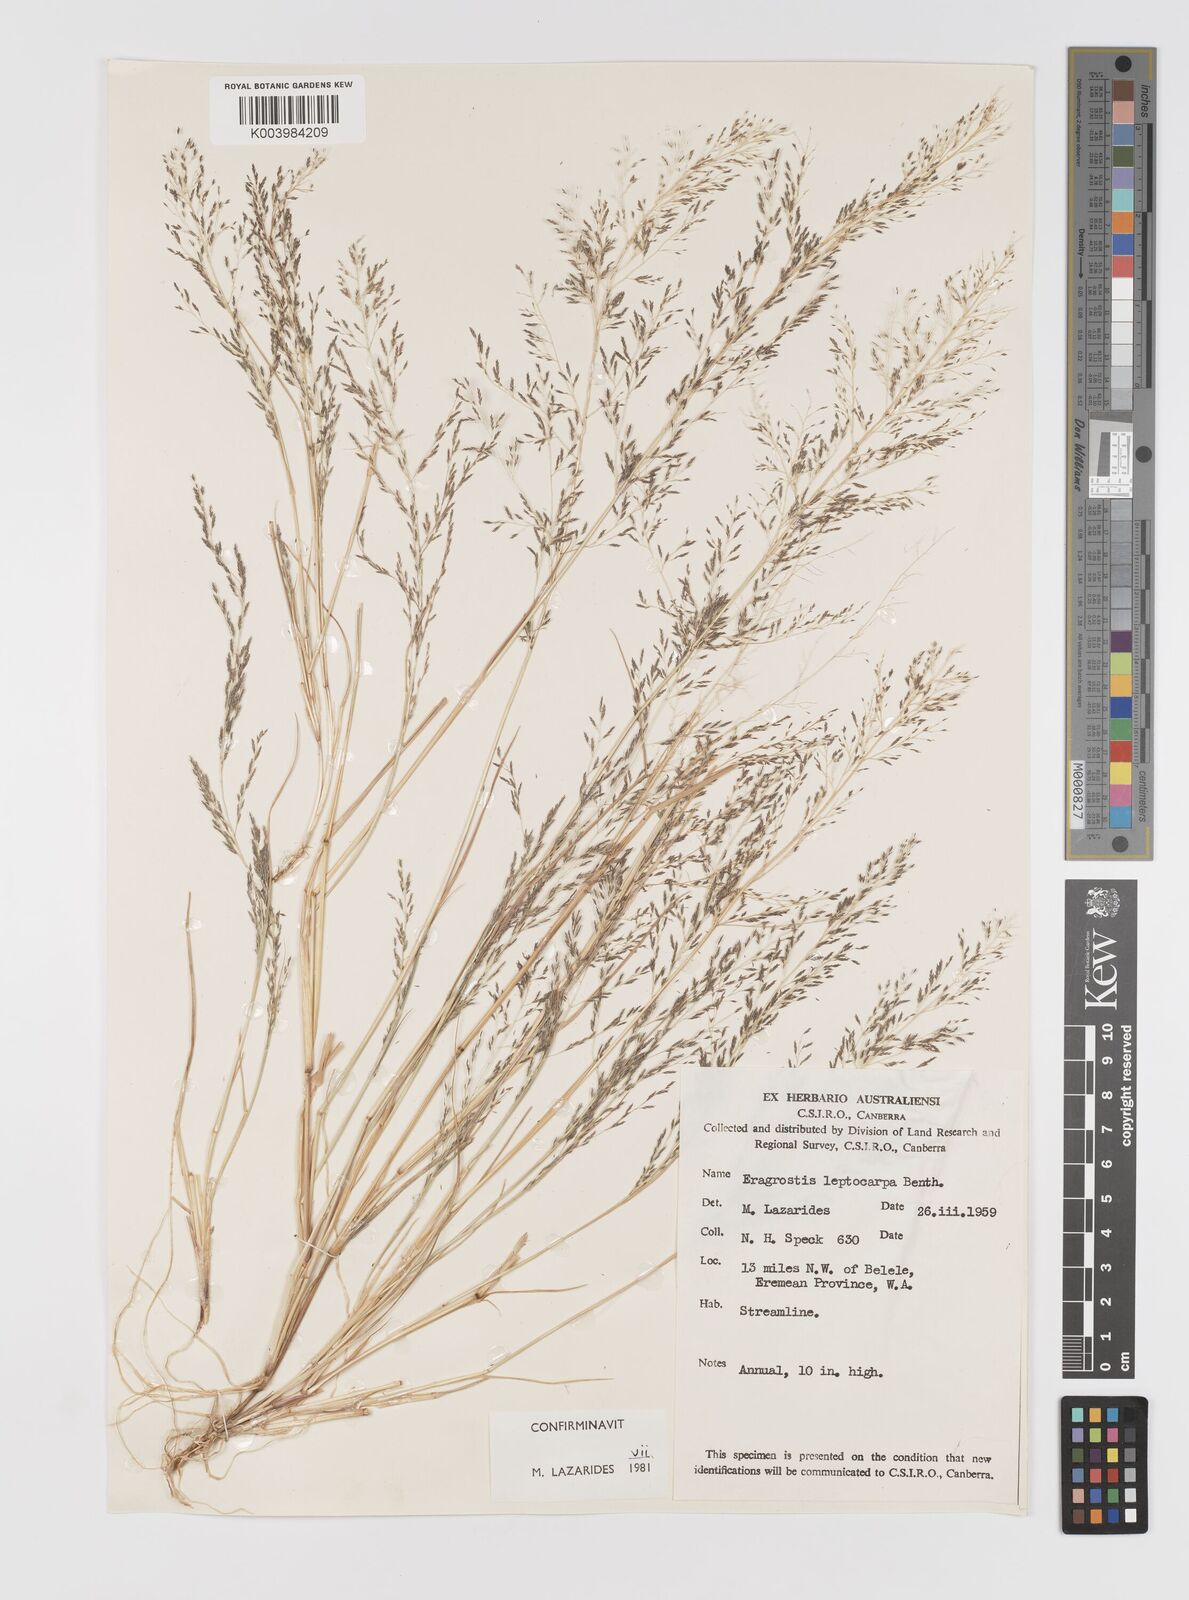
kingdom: Plantae
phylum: Tracheophyta
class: Liliopsida
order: Poales
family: Poaceae
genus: Eragrostis
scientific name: Eragrostis leptocarpa
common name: Drooping love grass
